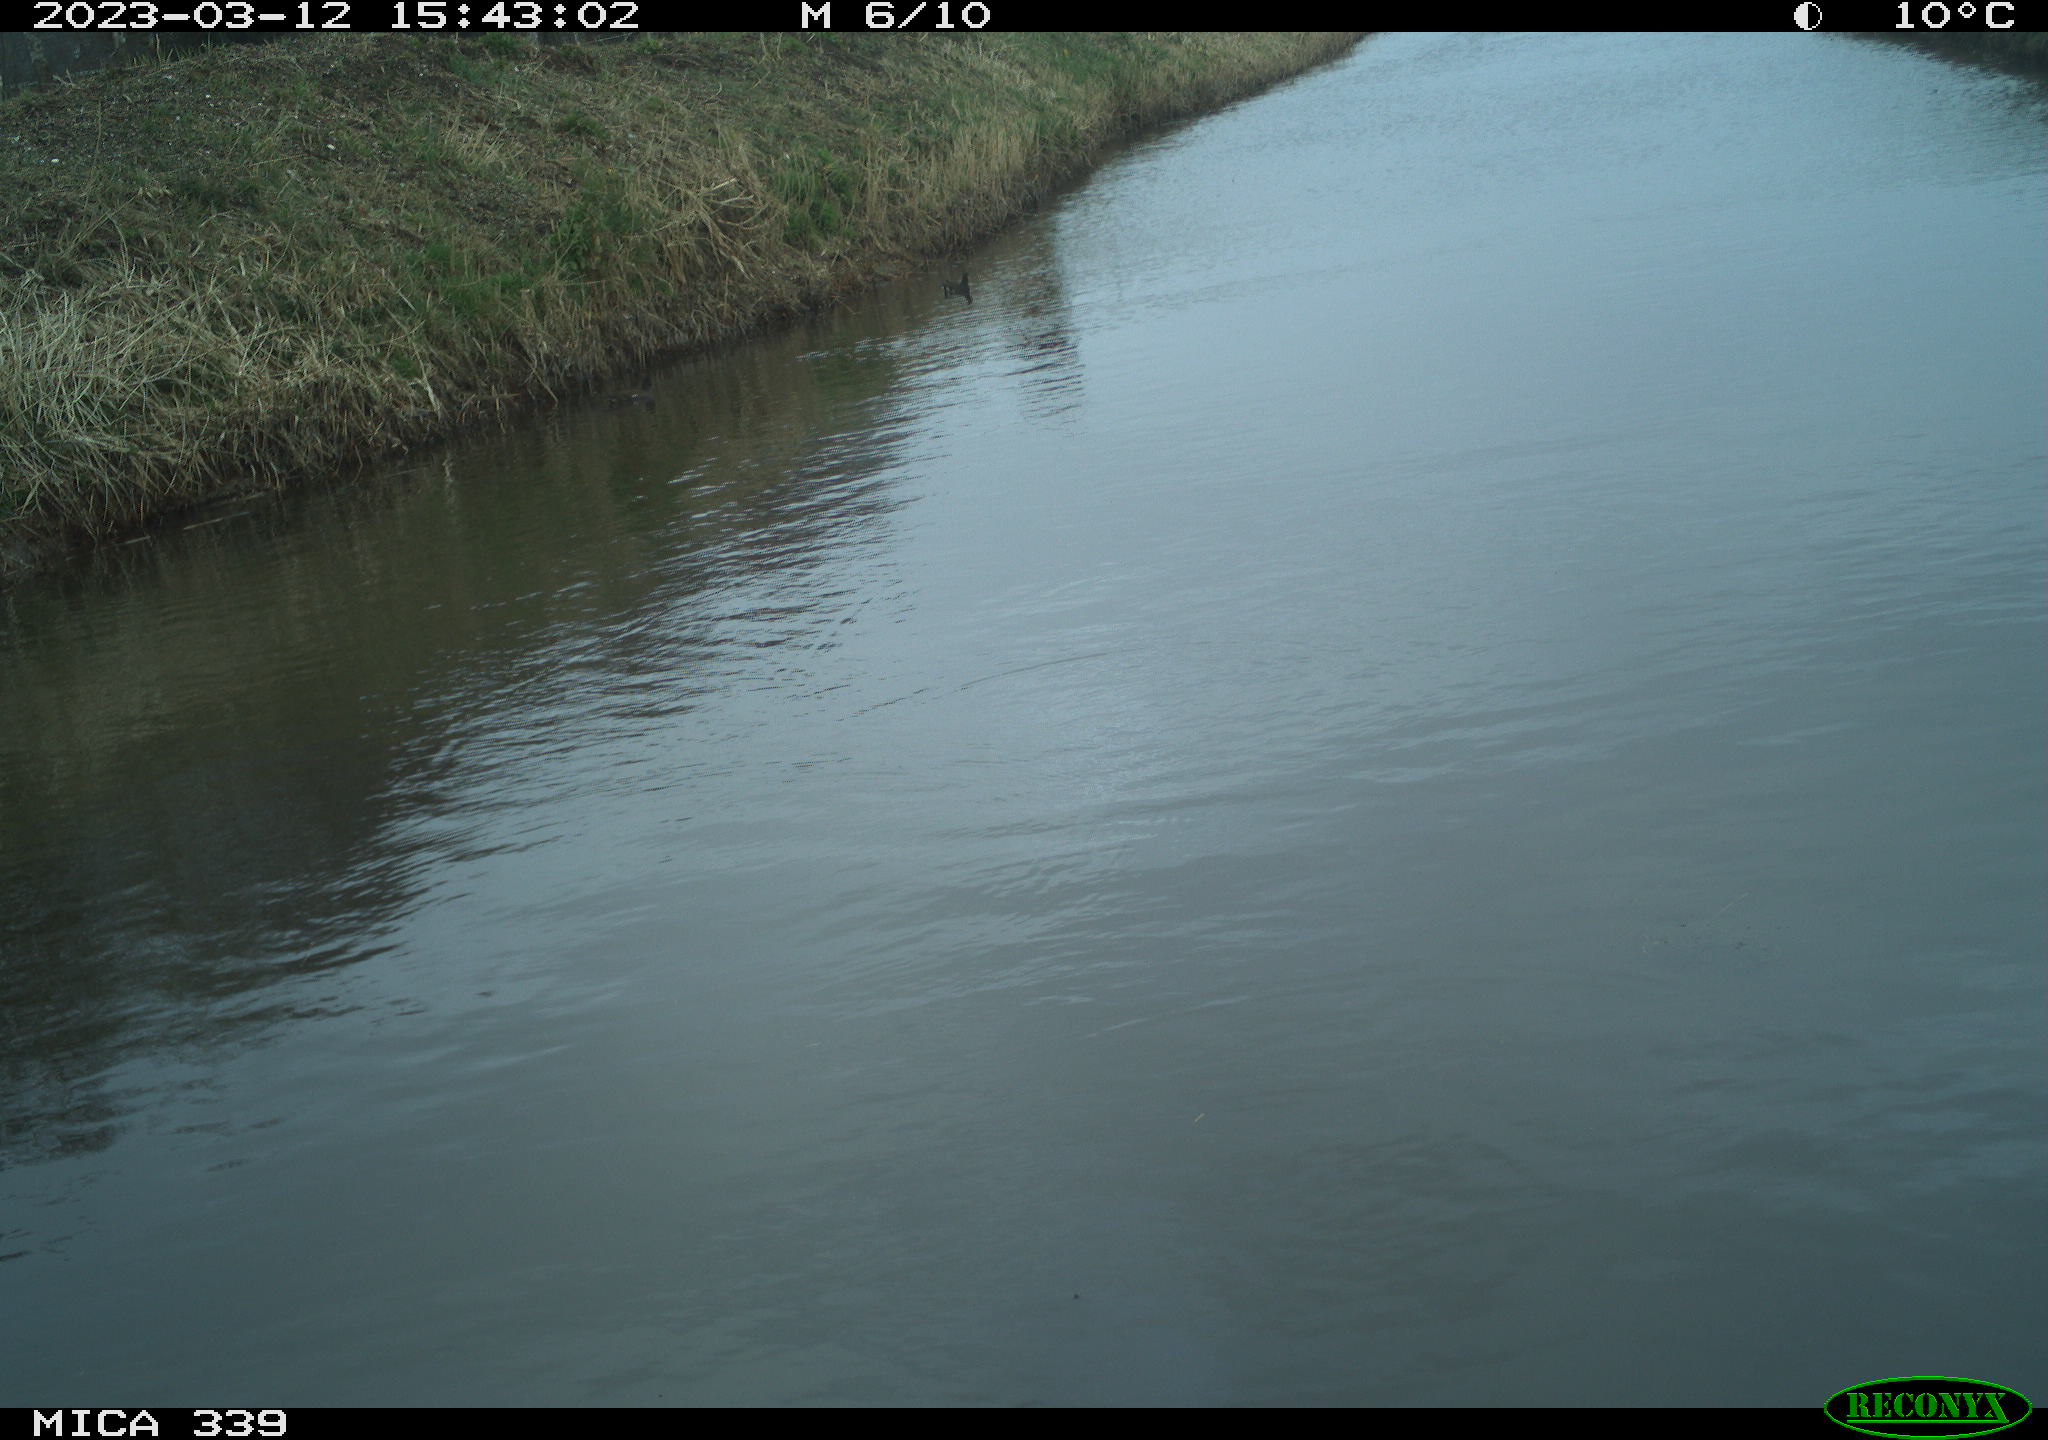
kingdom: Animalia
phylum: Chordata
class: Aves
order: Suliformes
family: Phalacrocoracidae
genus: Phalacrocorax
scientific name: Phalacrocorax carbo
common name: Great cormorant
